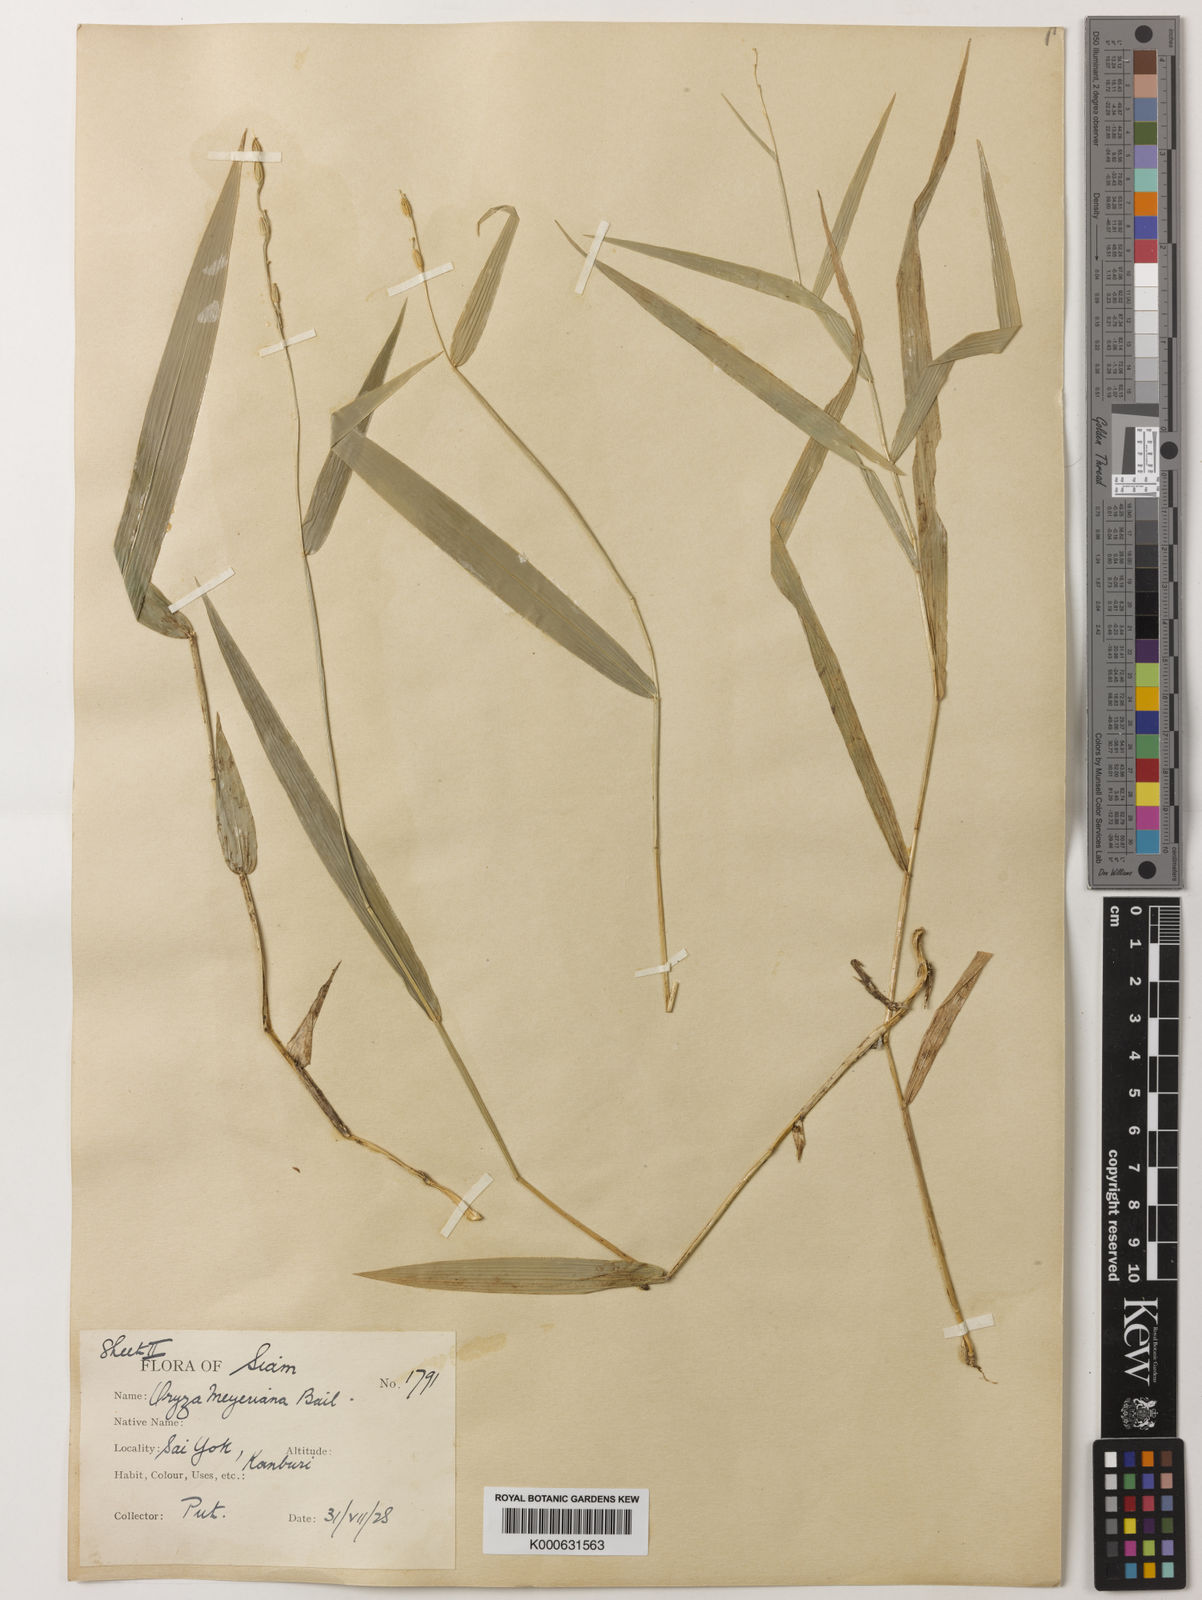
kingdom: Plantae
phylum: Tracheophyta
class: Liliopsida
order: Poales
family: Poaceae
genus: Oryza
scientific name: Oryza meyeriana
